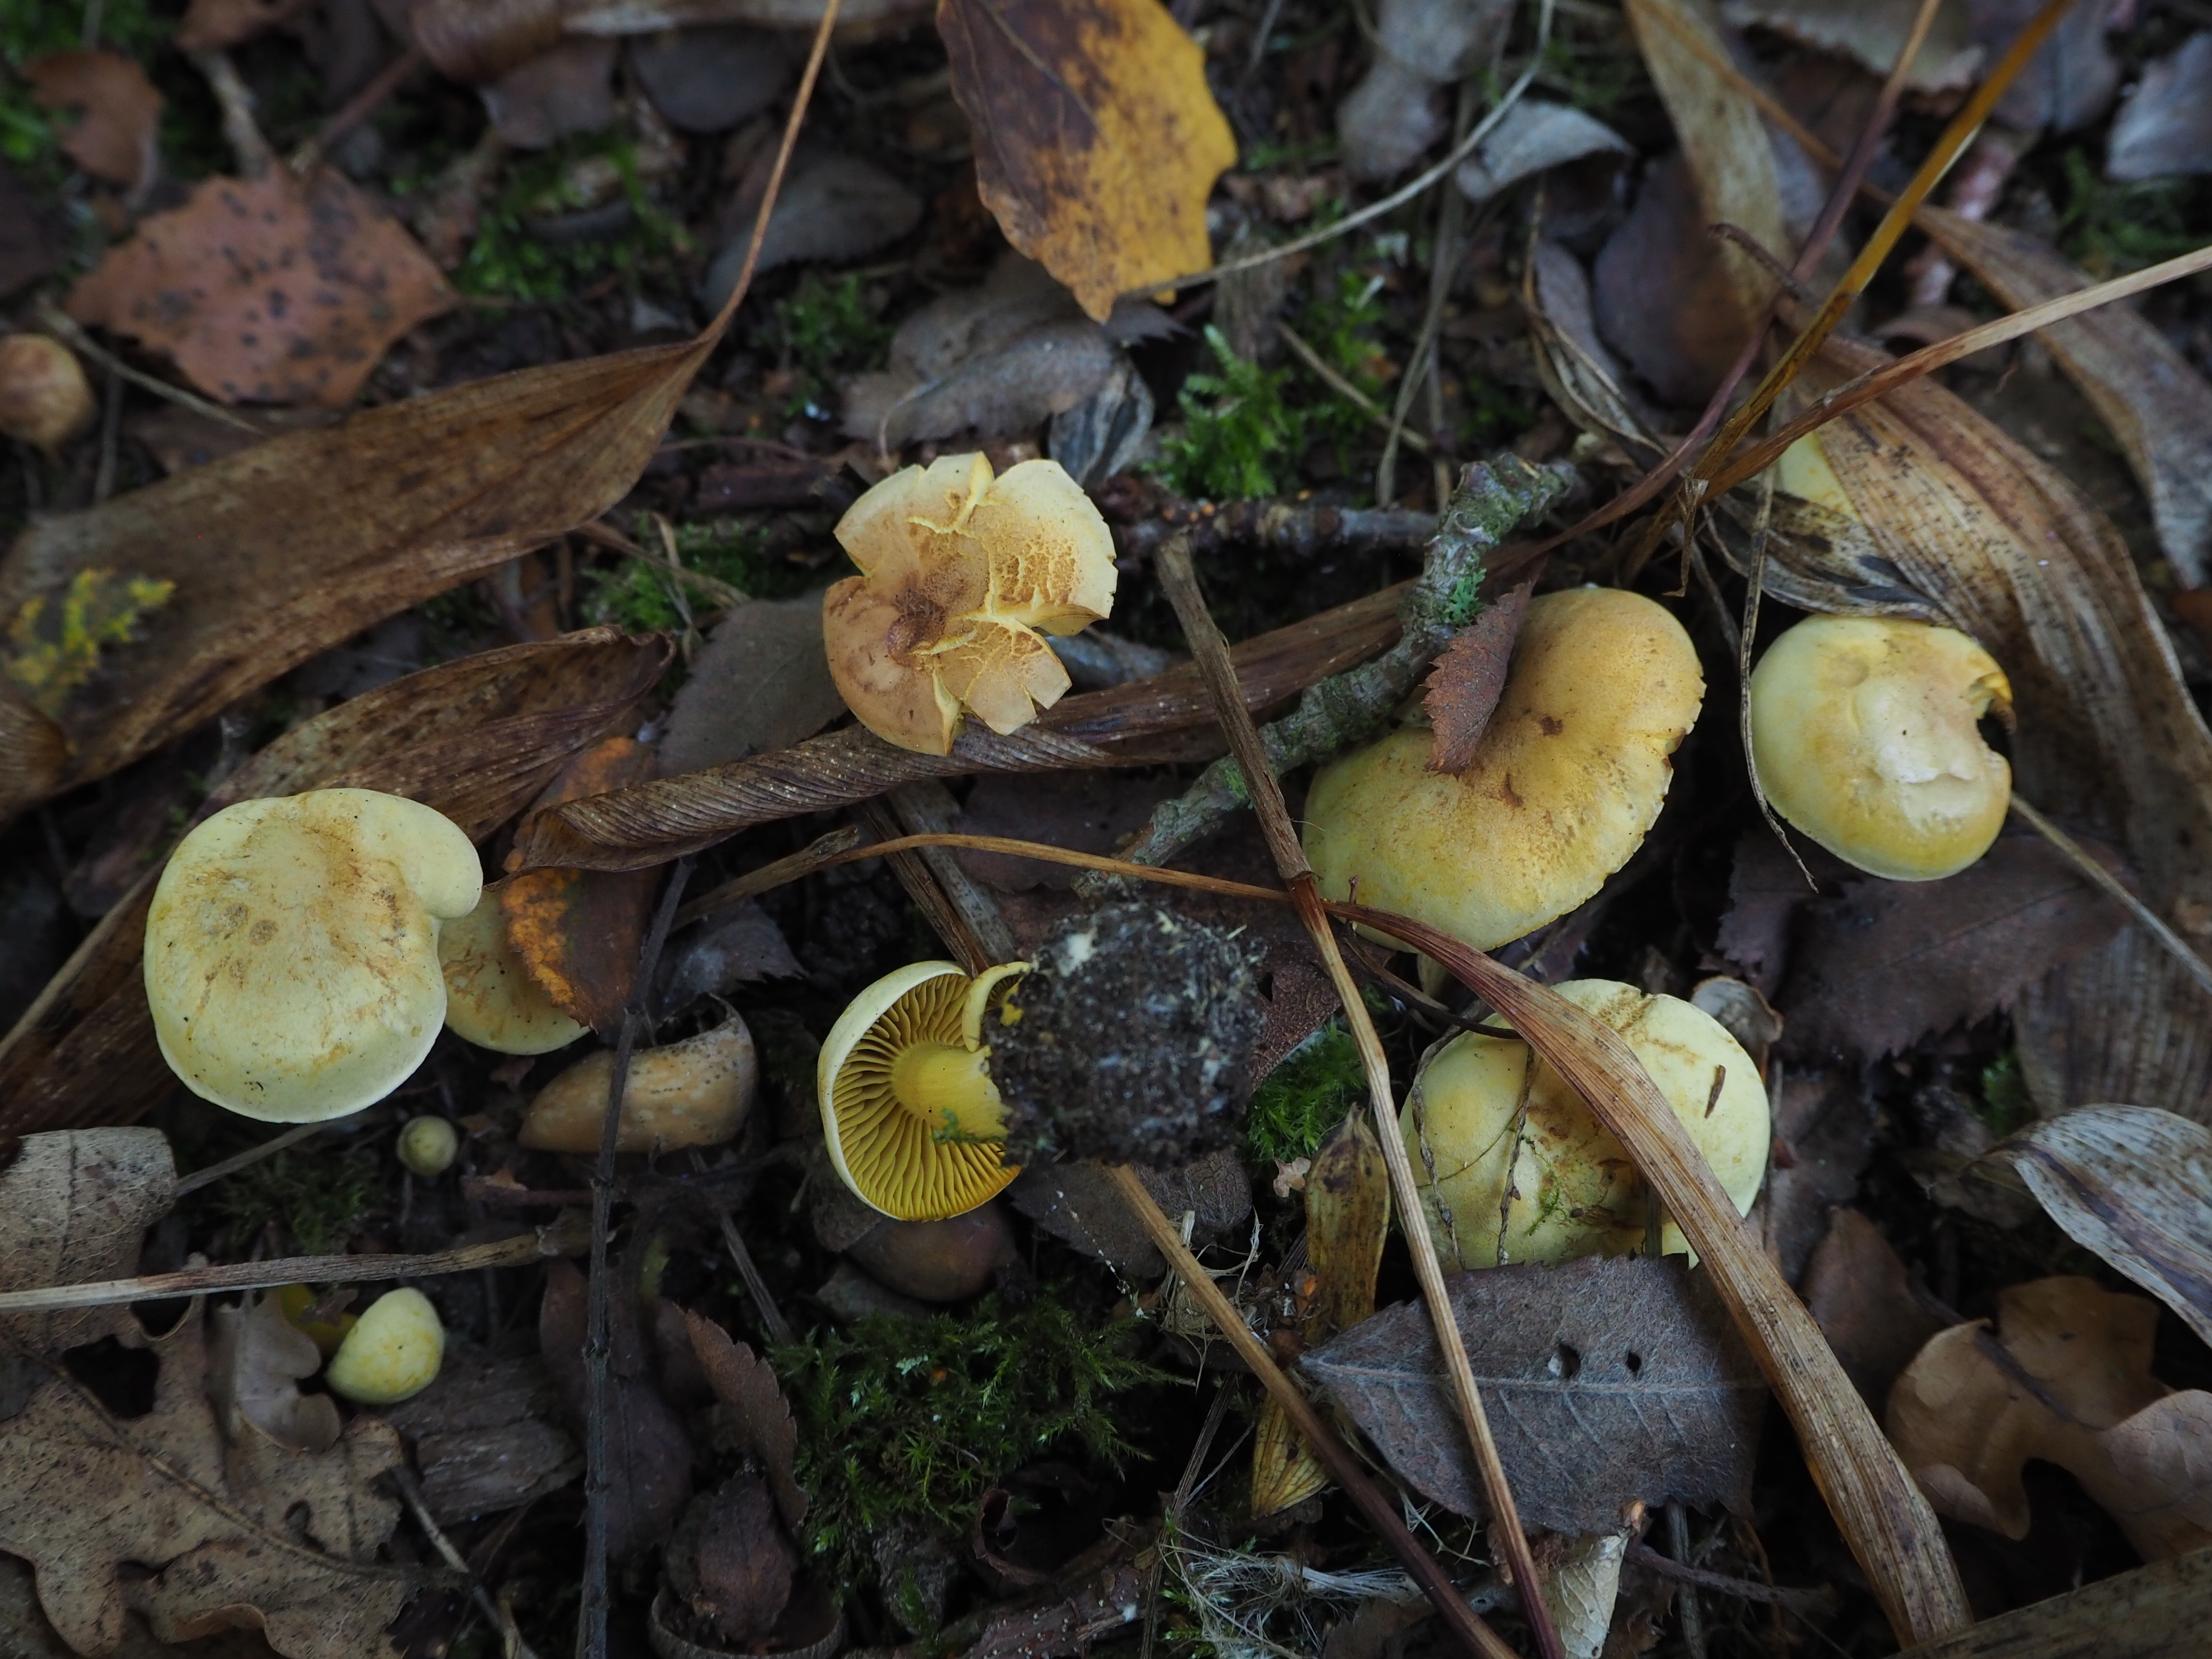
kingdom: Fungi
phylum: Basidiomycota
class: Agaricomycetes
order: Agaricales
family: Tricholomataceae
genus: Tricholoma
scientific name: Tricholoma sulphureum
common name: Stinky knight
